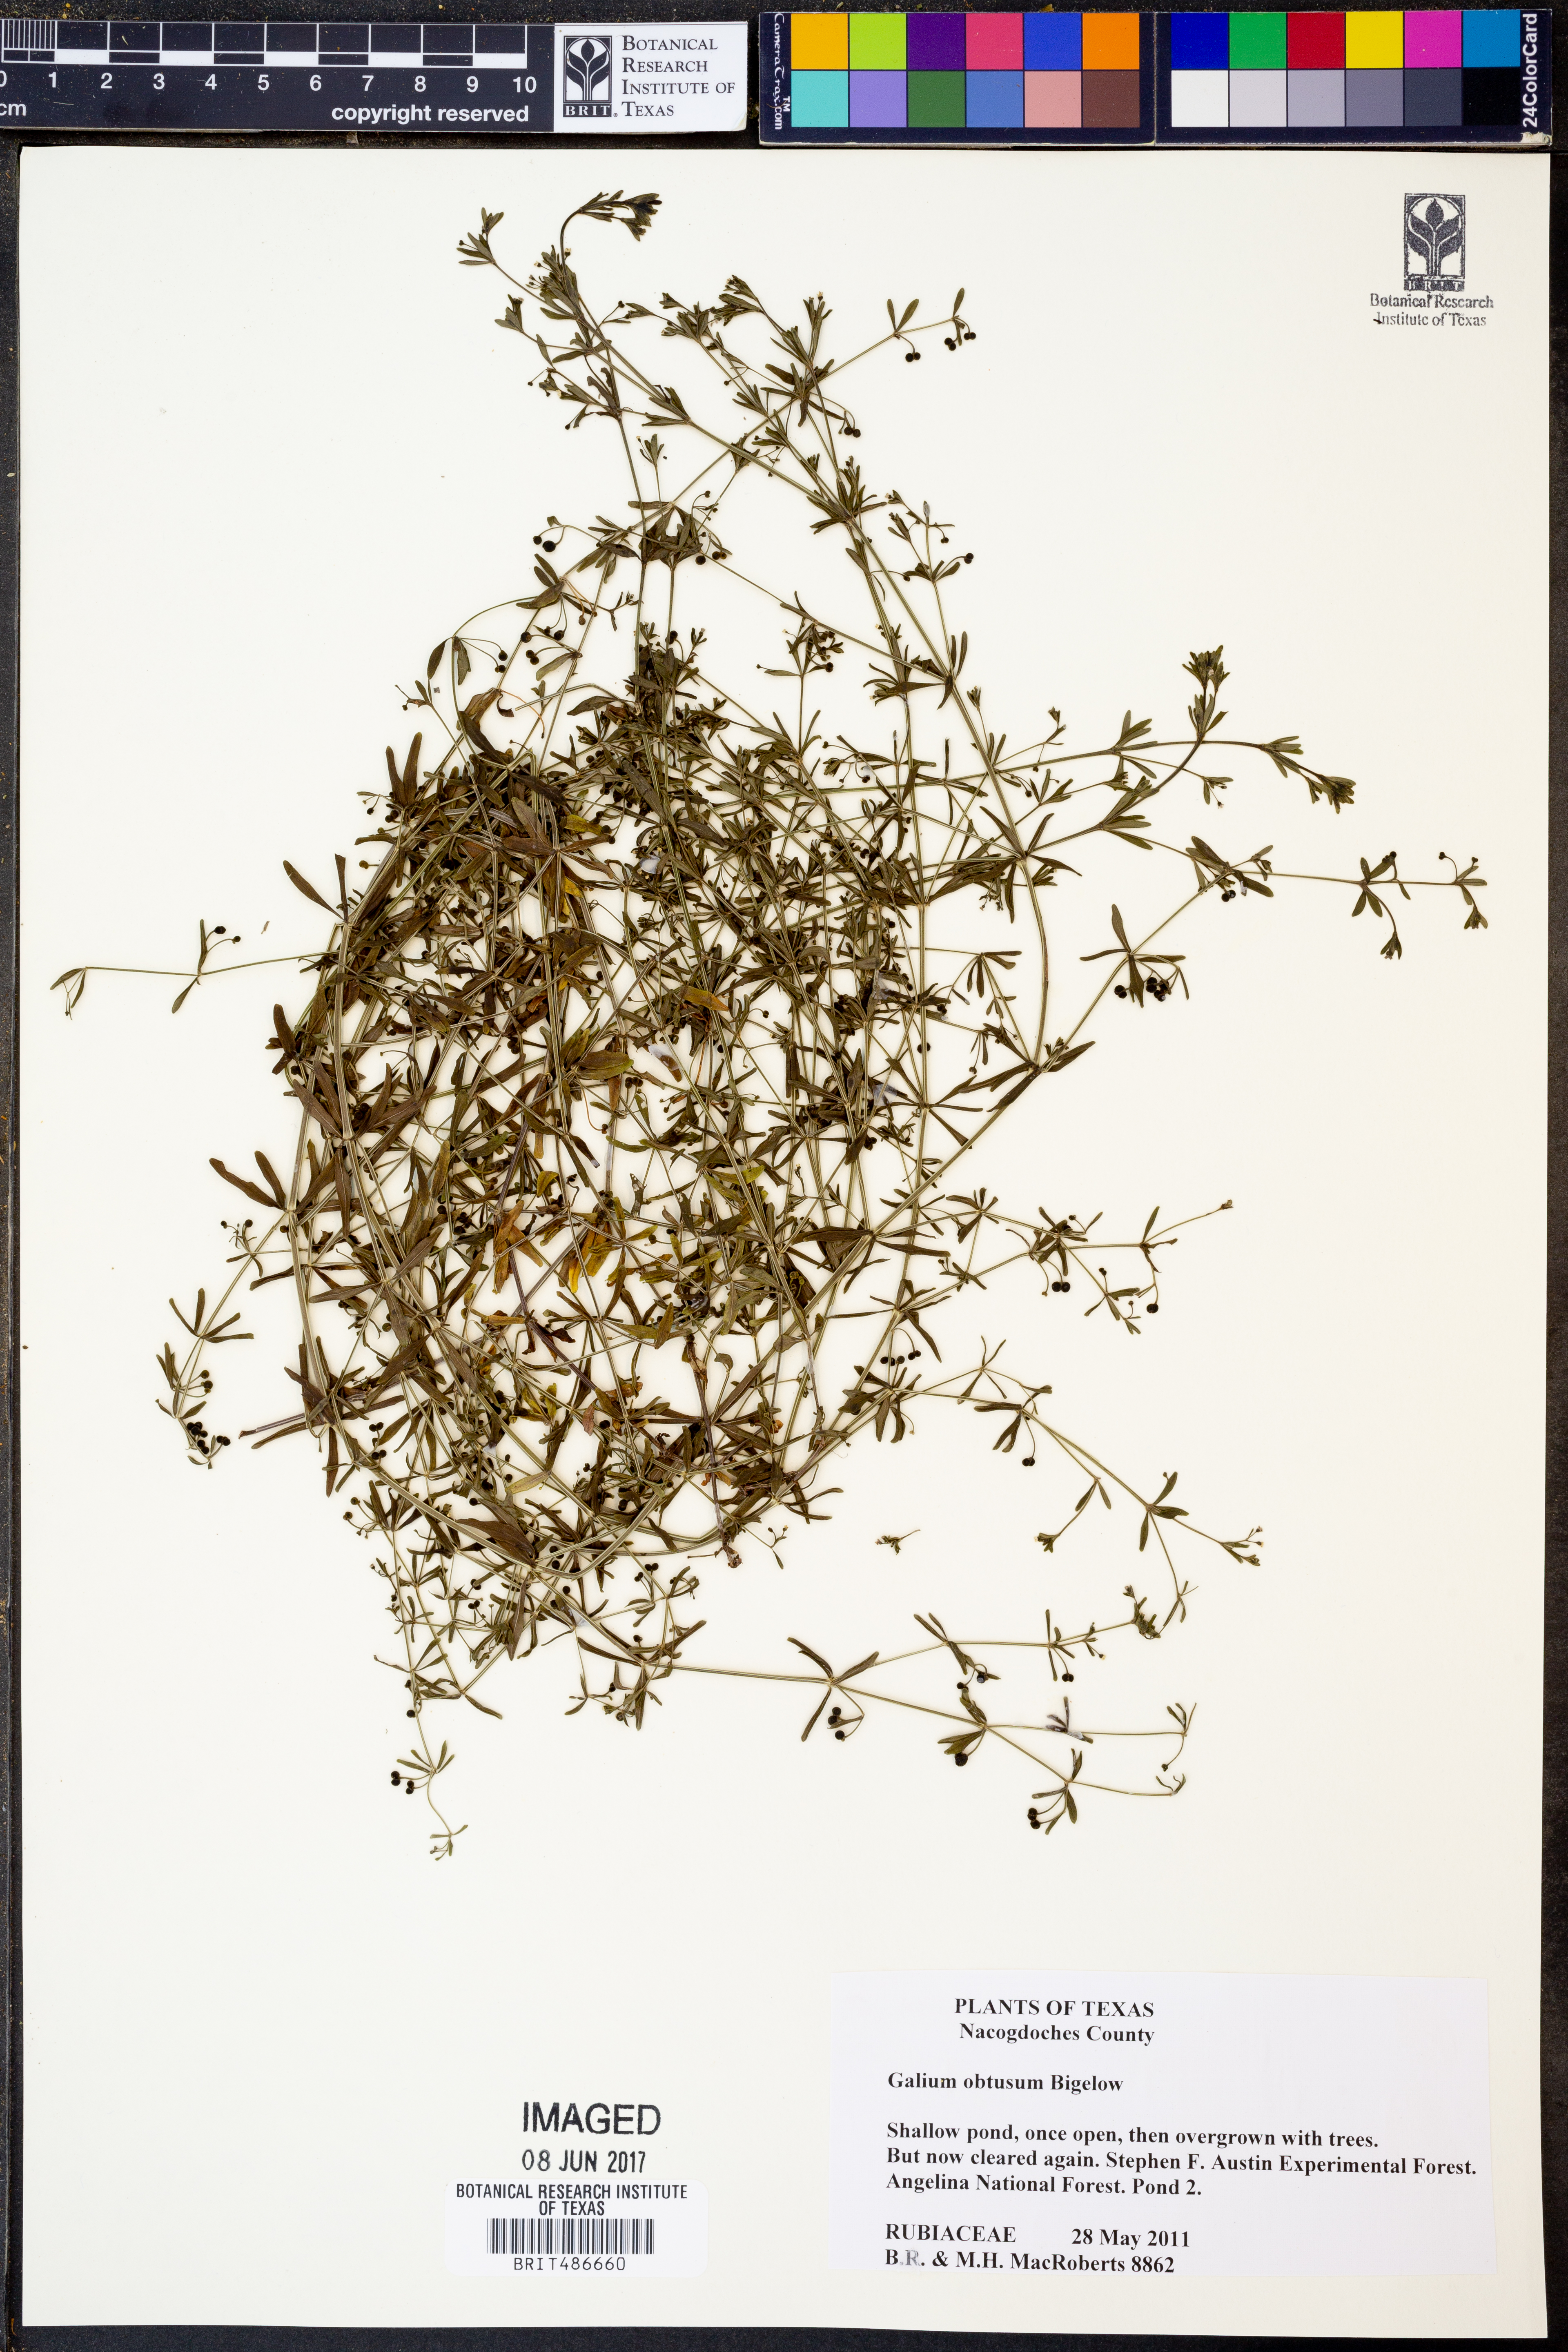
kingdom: Plantae
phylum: Tracheophyta
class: Magnoliopsida
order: Gentianales
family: Rubiaceae
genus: Galium
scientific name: Galium obtusum
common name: Blunt-leaved bedstraw
